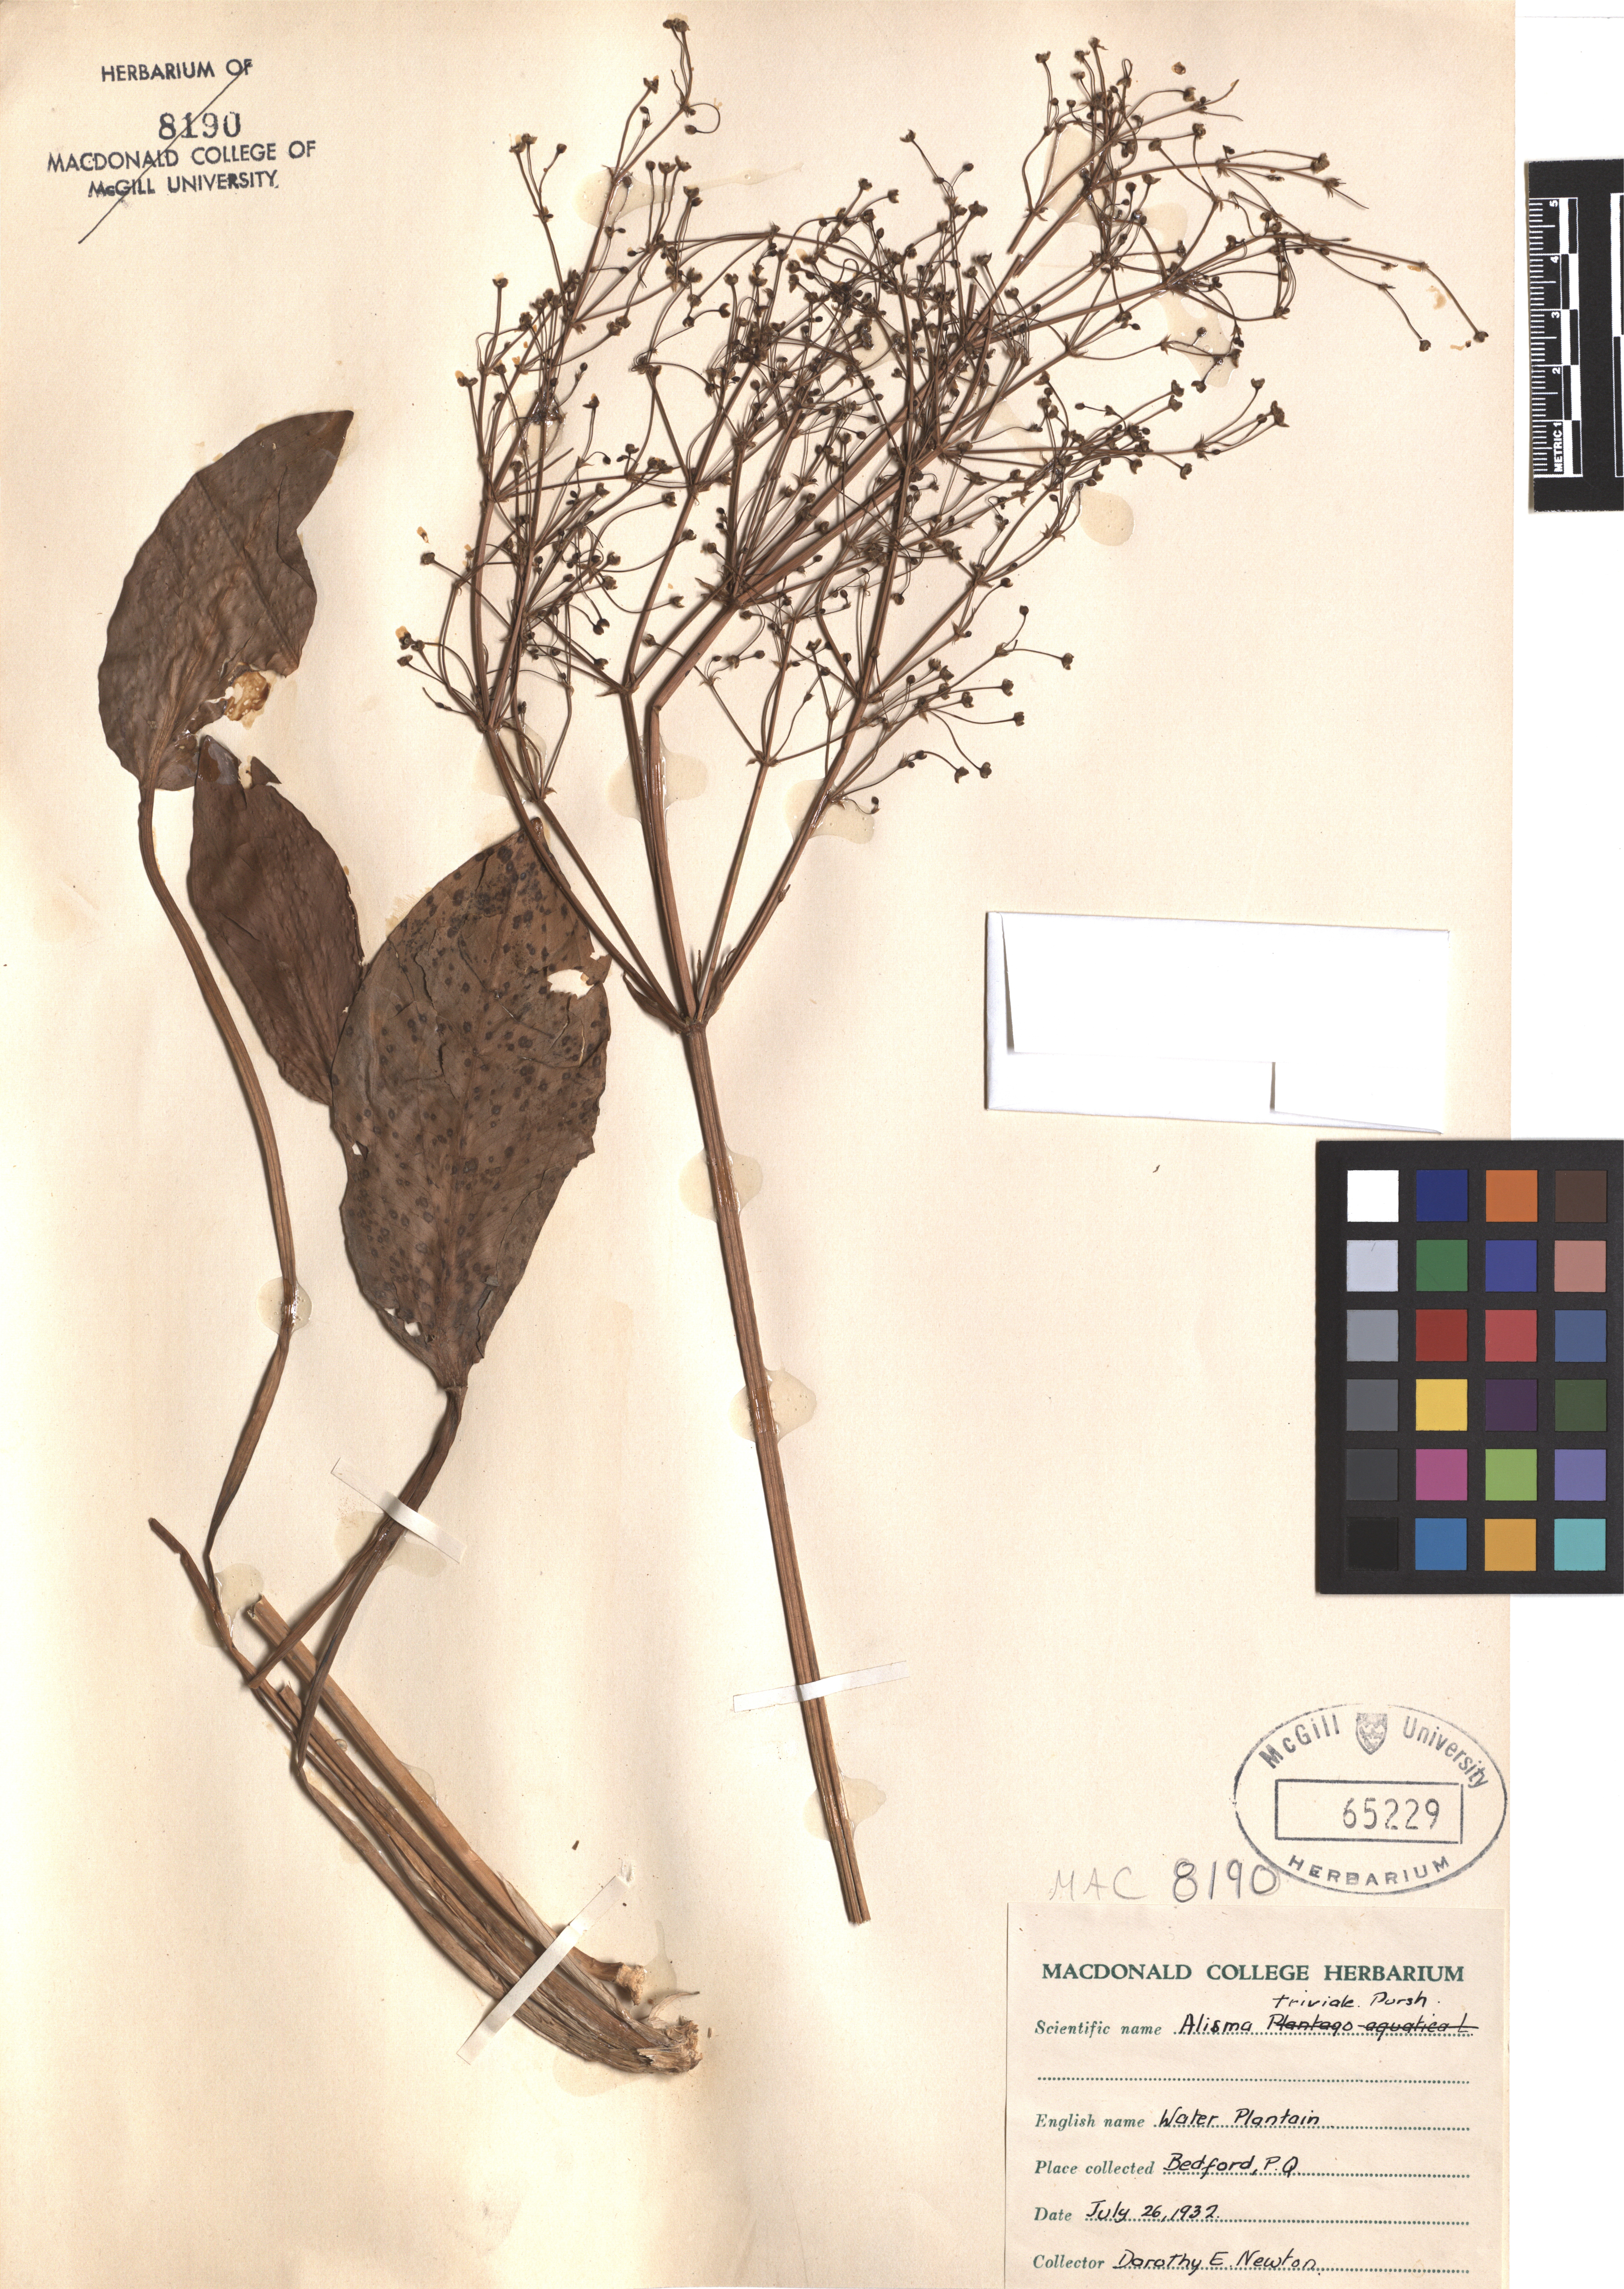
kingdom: Plantae
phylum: Tracheophyta
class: Liliopsida
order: Alismatales
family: Alismataceae
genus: Alisma
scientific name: Alisma triviale
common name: Northern water-plantain
